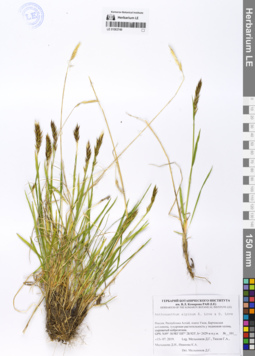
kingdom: Plantae
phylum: Tracheophyta
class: Liliopsida
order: Poales
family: Poaceae
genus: Anthoxanthum
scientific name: Anthoxanthum nipponicum
